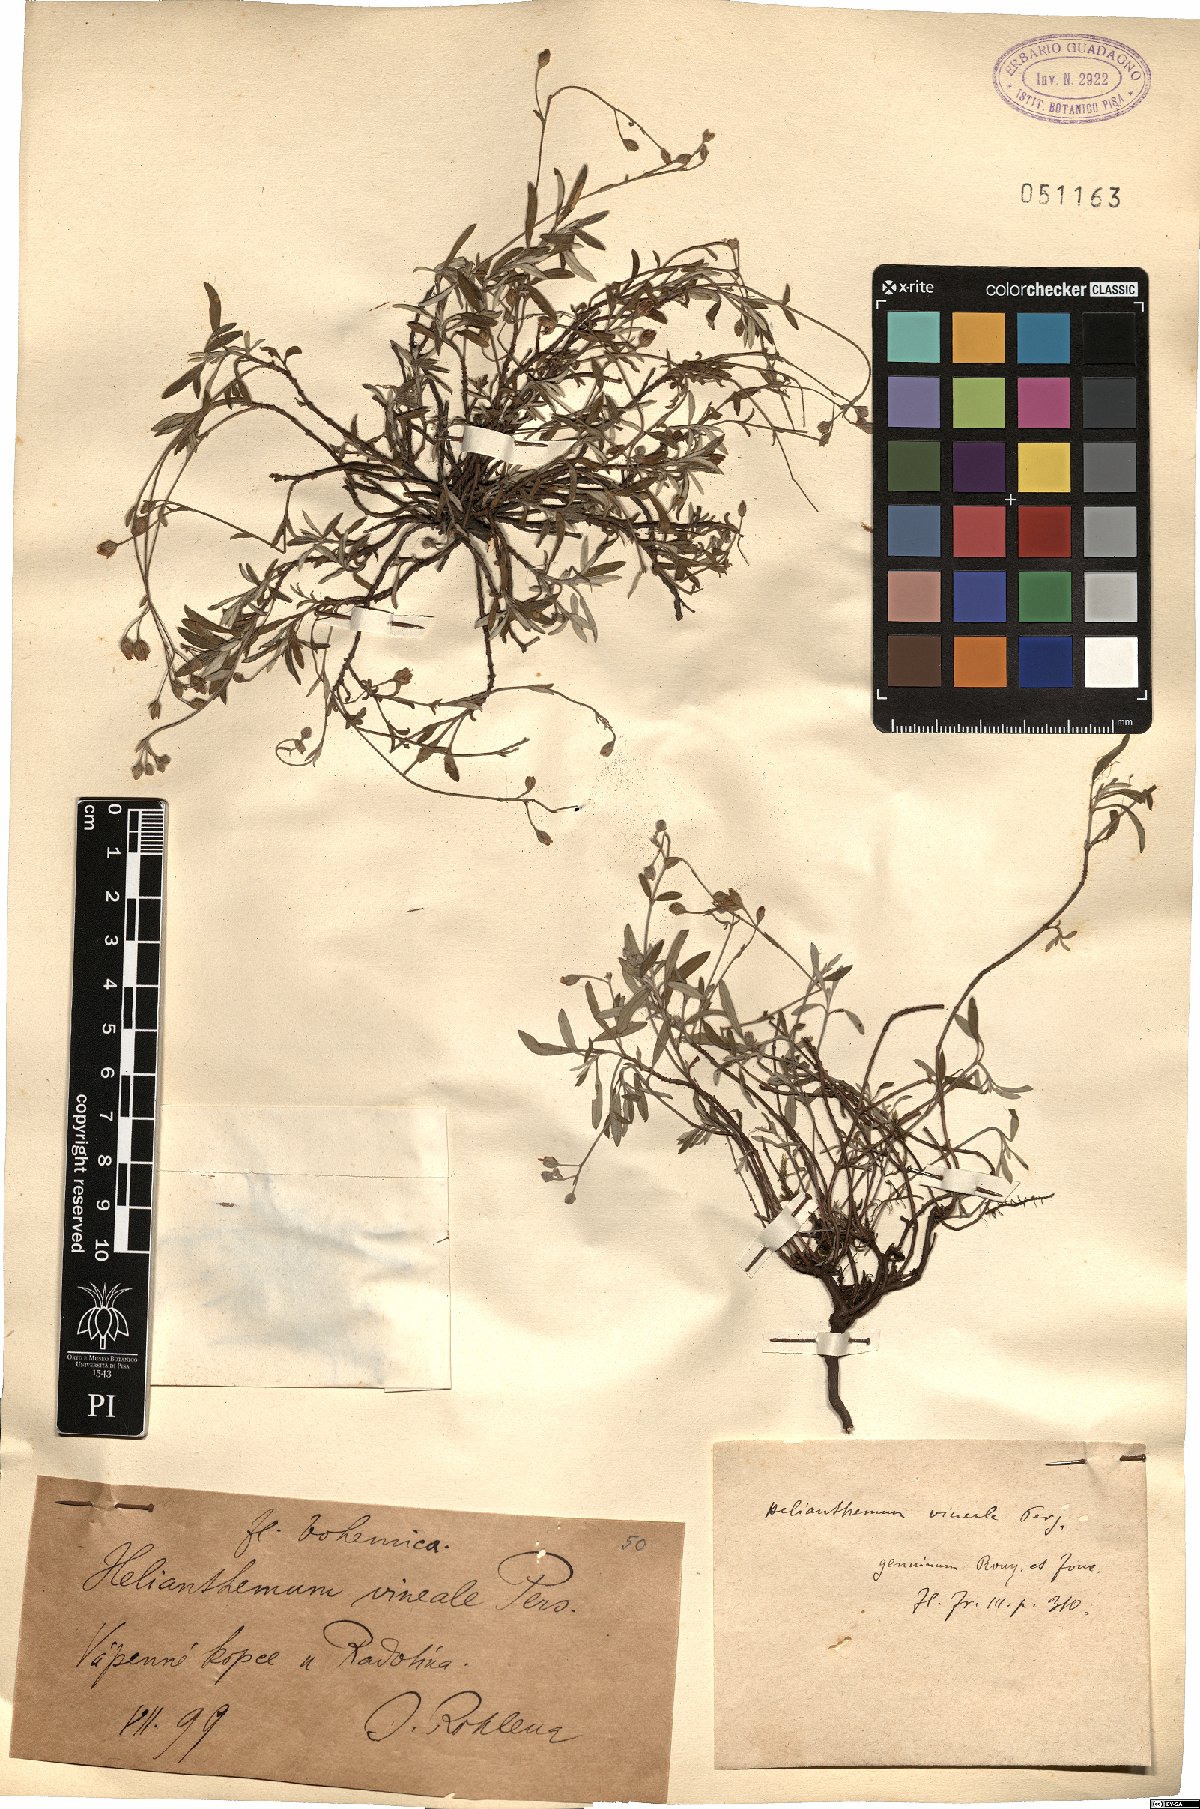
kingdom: Plantae
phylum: Tracheophyta
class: Magnoliopsida
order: Malvales
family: Cistaceae
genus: Helianthemum
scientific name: Helianthemum canum
